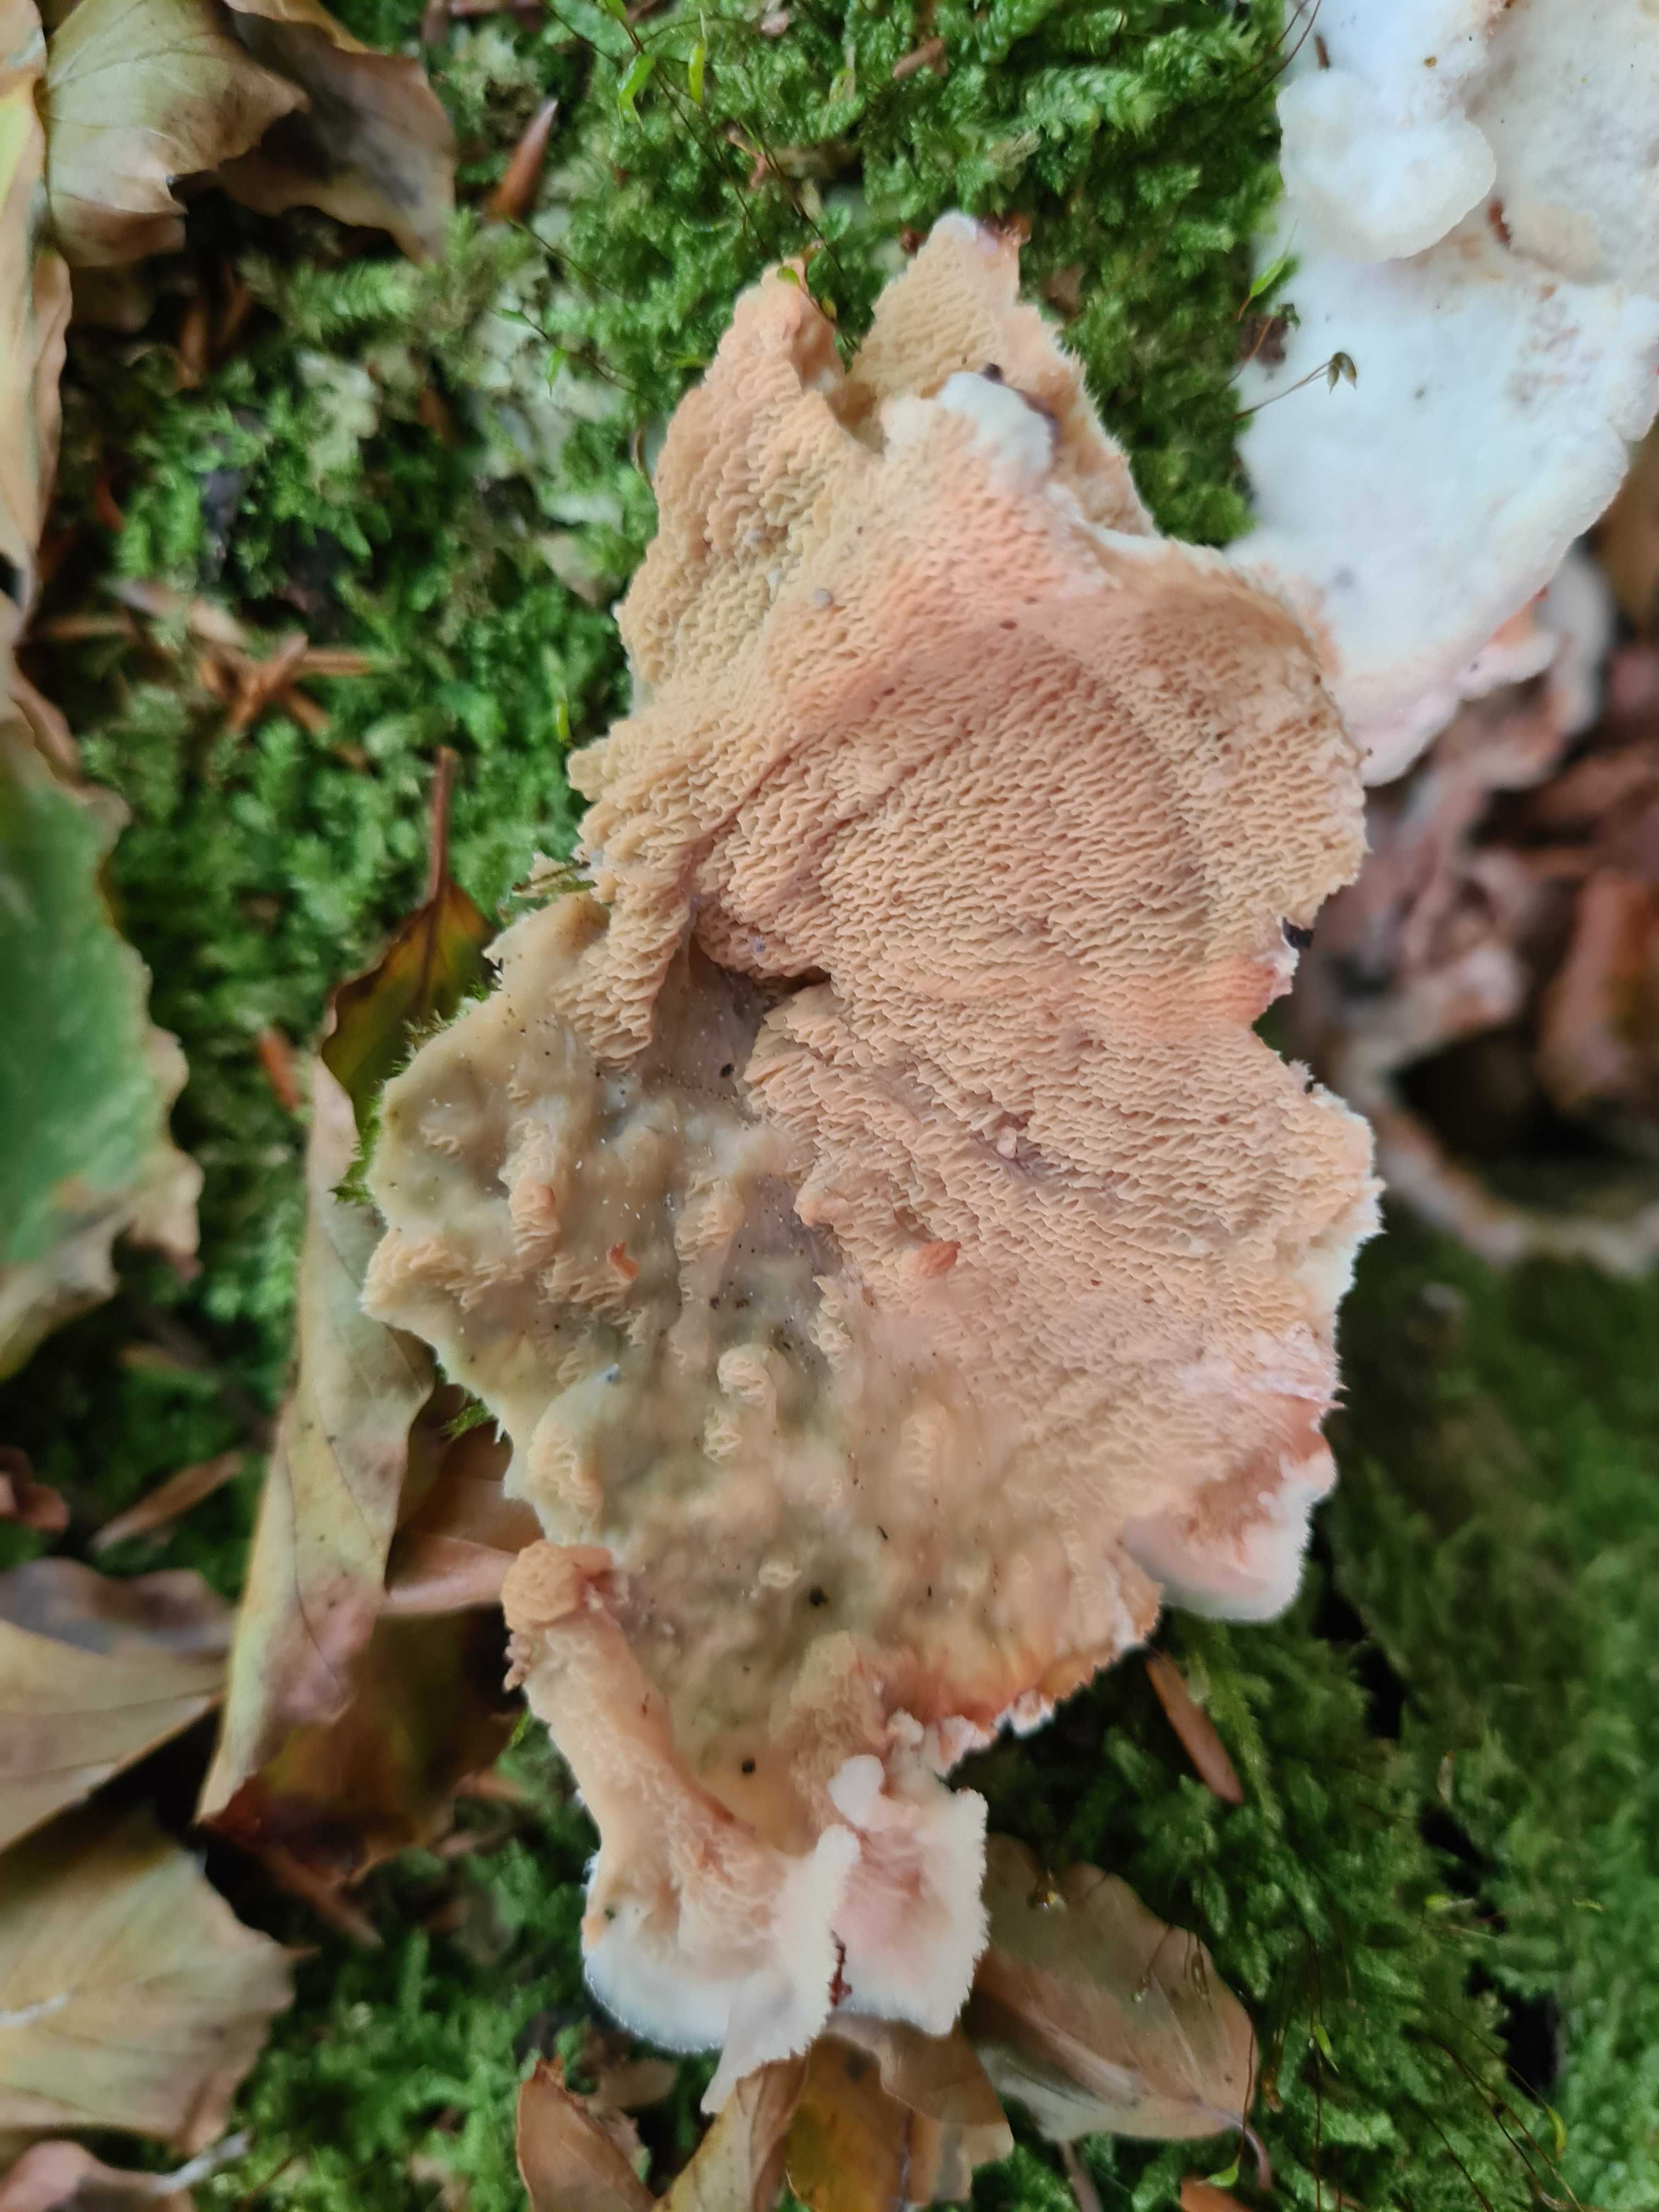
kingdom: Fungi
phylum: Basidiomycota
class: Agaricomycetes
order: Polyporales
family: Meruliaceae
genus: Phlebia
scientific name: Phlebia tremellosa
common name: bævrende åresvamp
